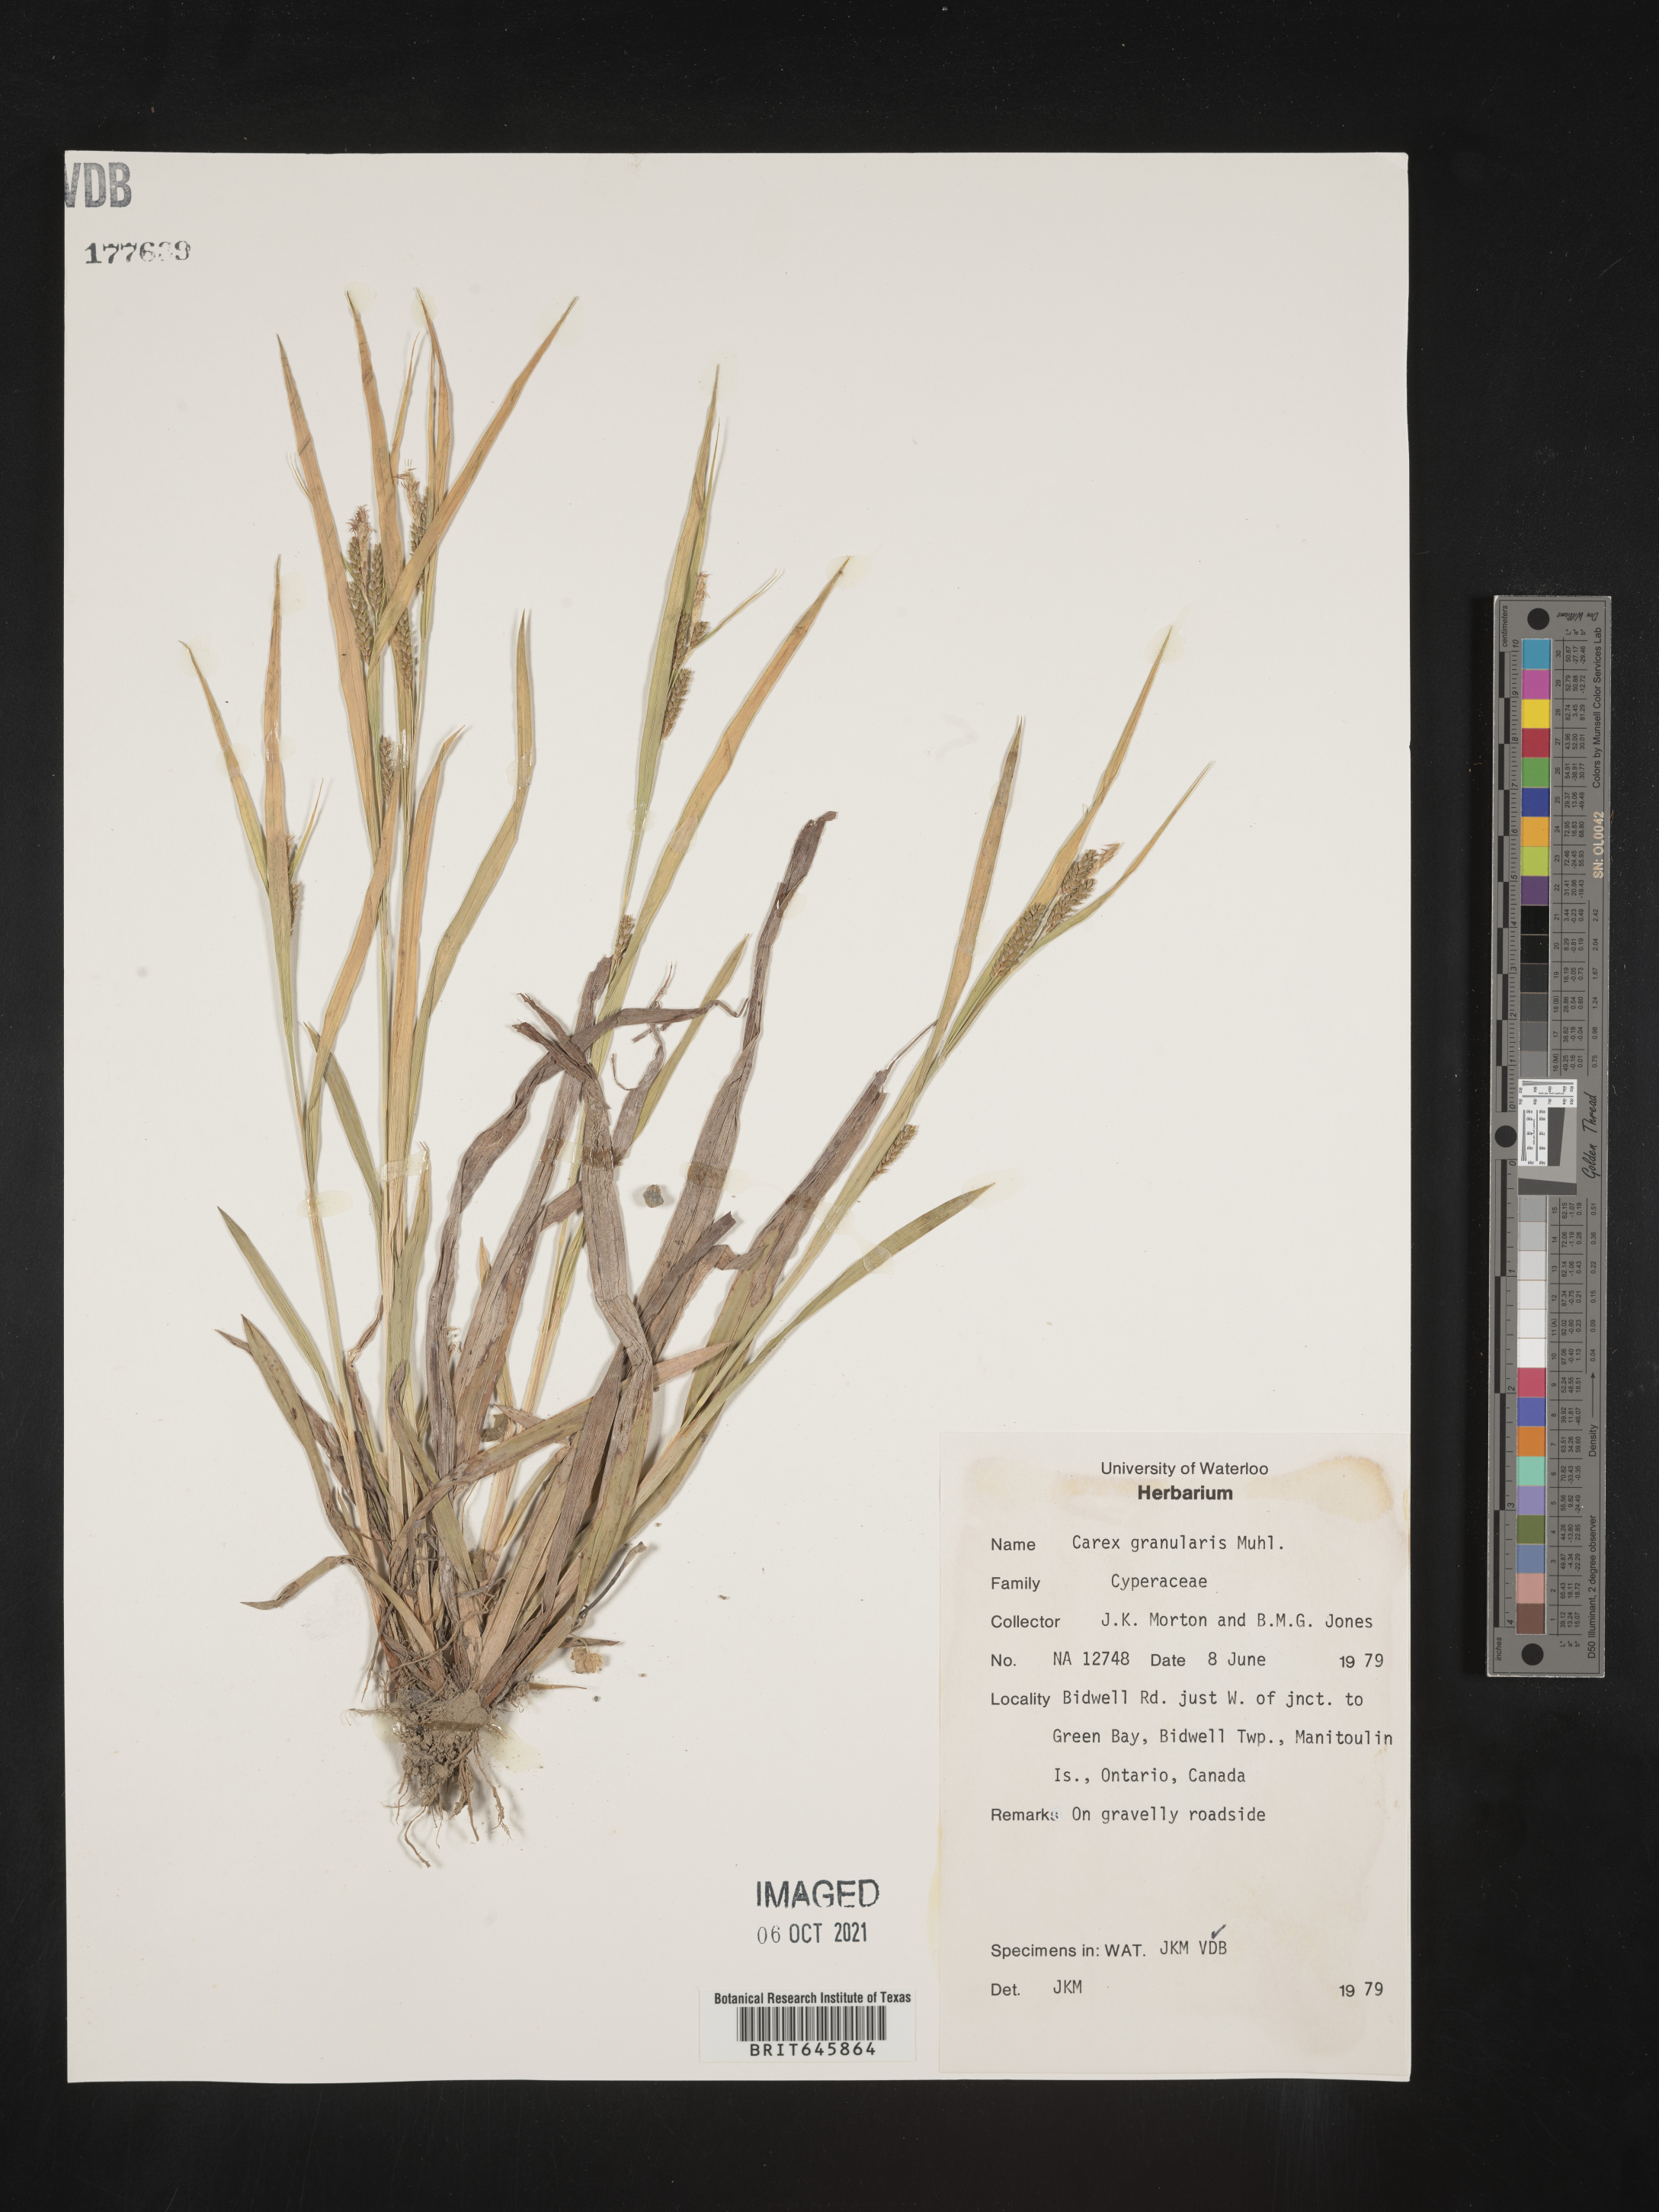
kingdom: Plantae
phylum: Tracheophyta
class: Liliopsida
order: Poales
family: Cyperaceae
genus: Carex
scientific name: Carex granularis
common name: Granular sedge
